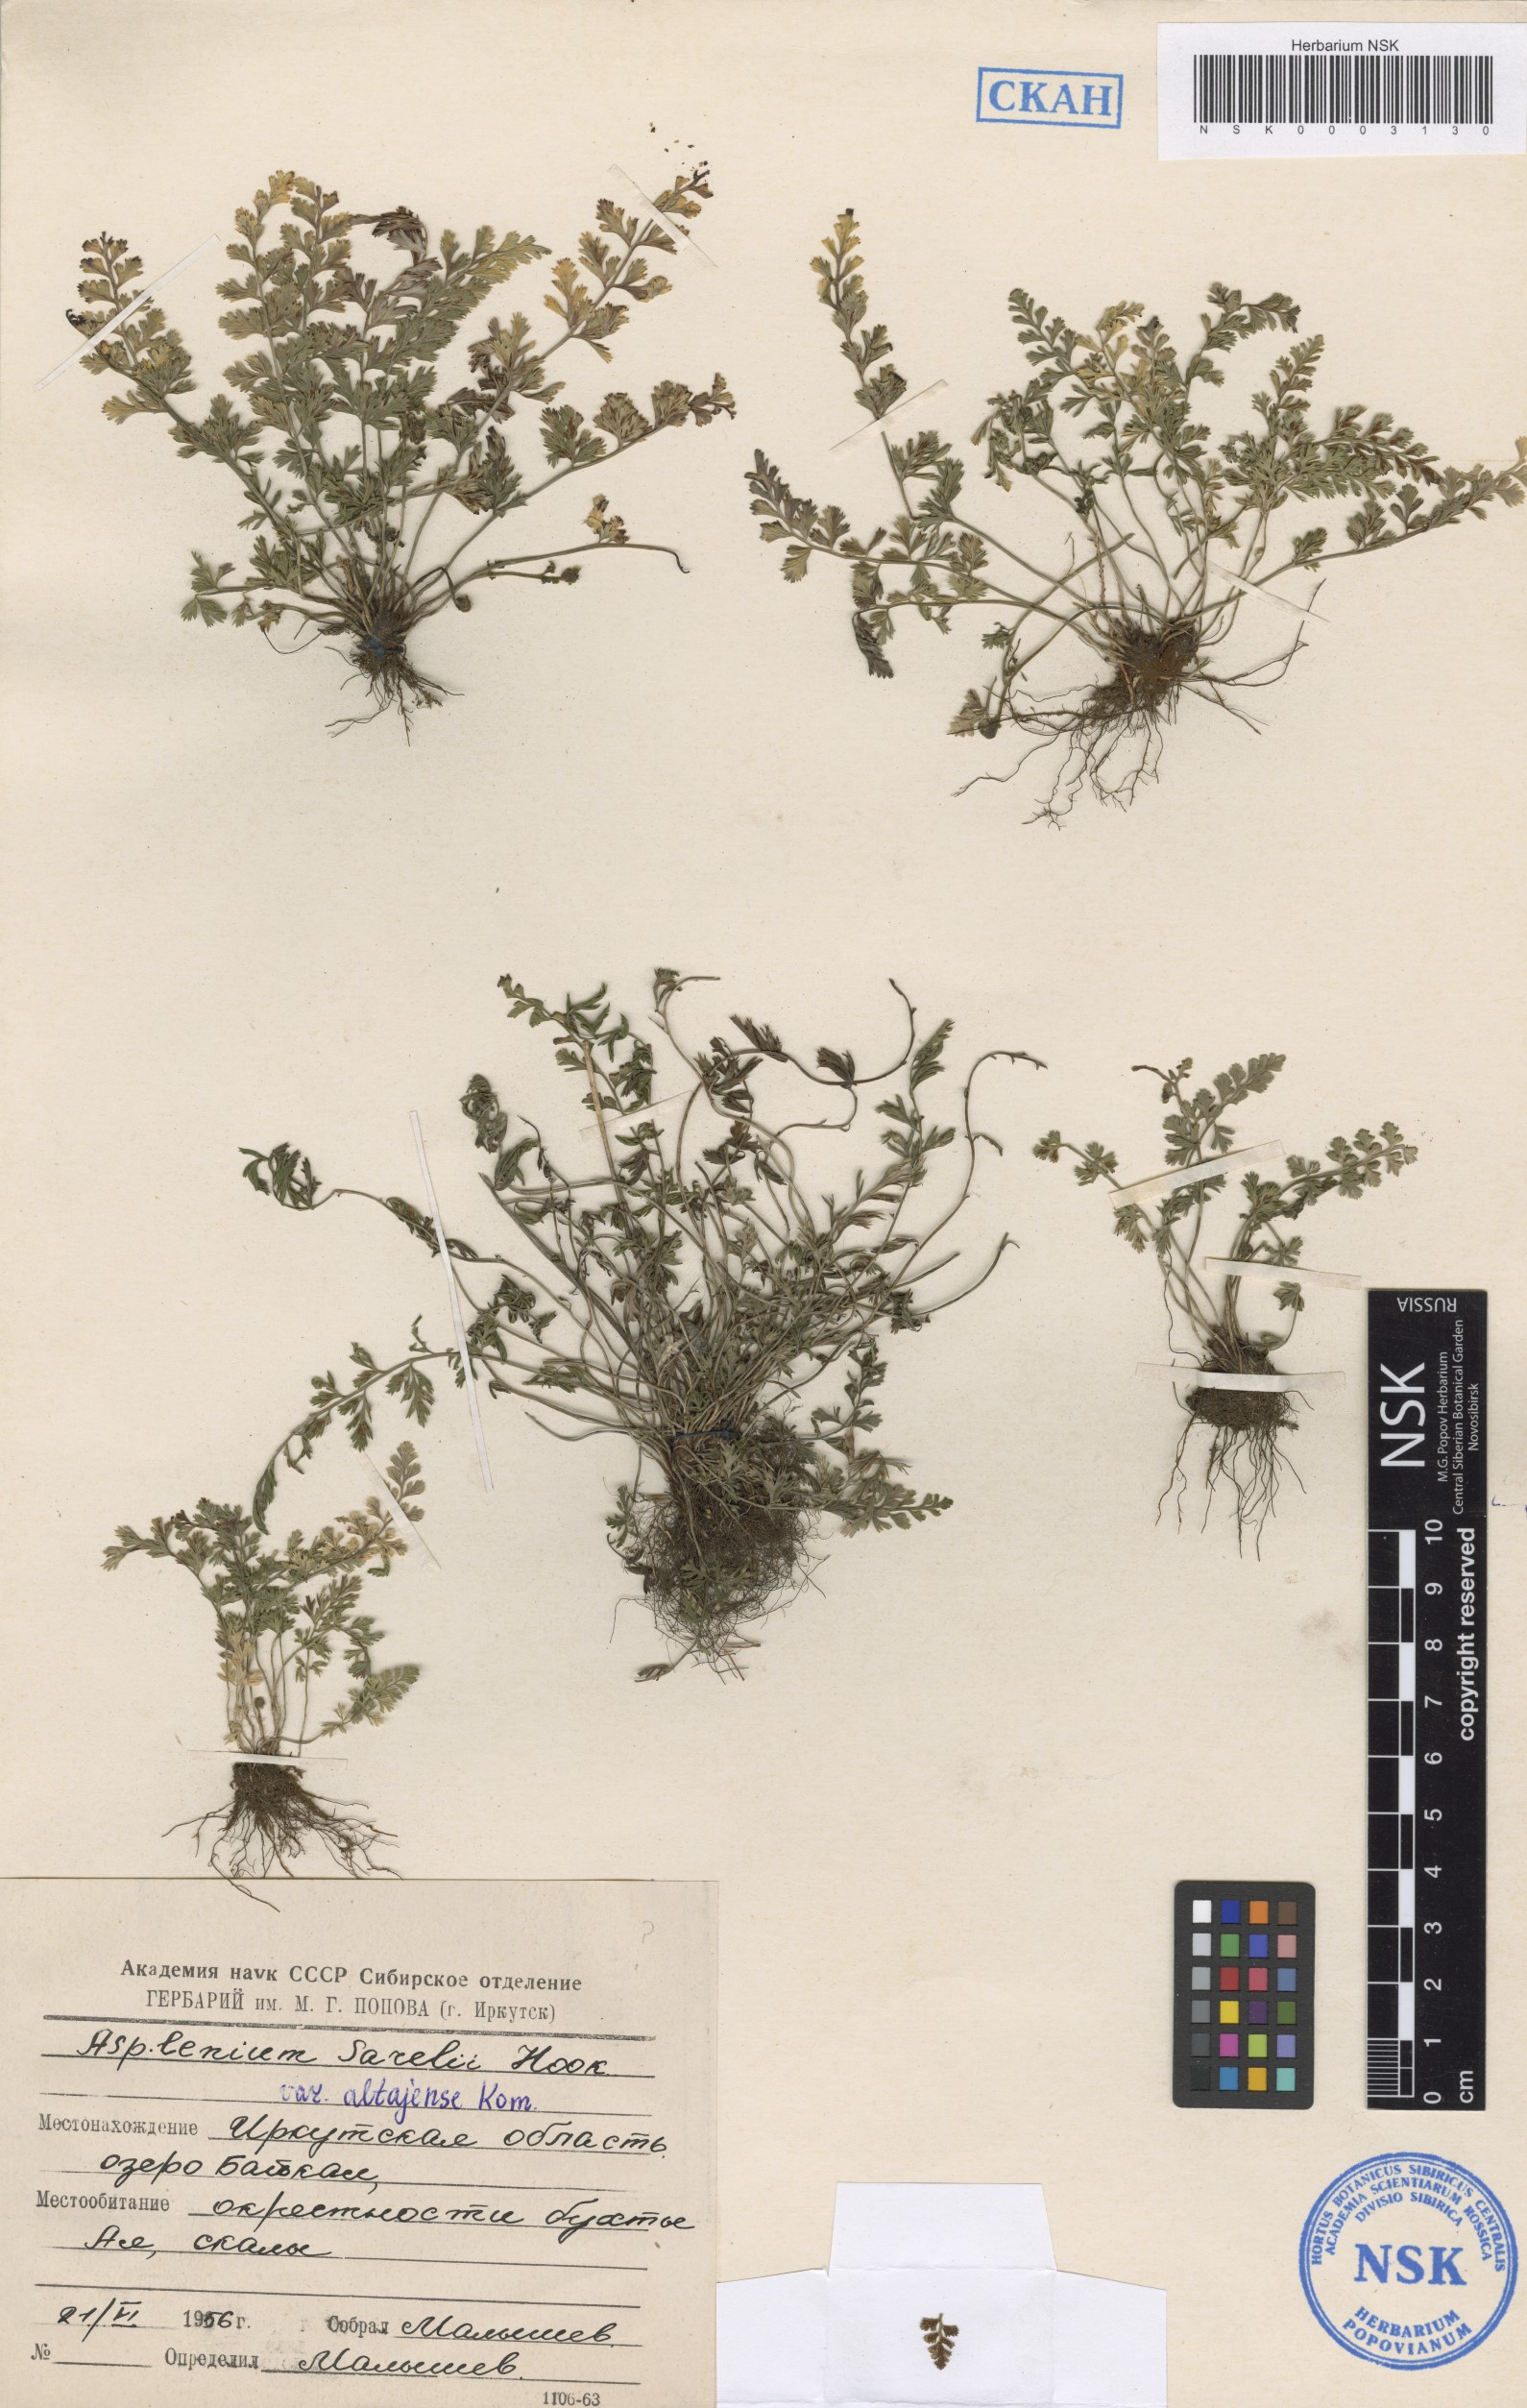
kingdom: Plantae
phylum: Tracheophyta
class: Polypodiopsida
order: Polypodiales
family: Aspleniaceae
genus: Asplenium
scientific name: Asplenium altajense
